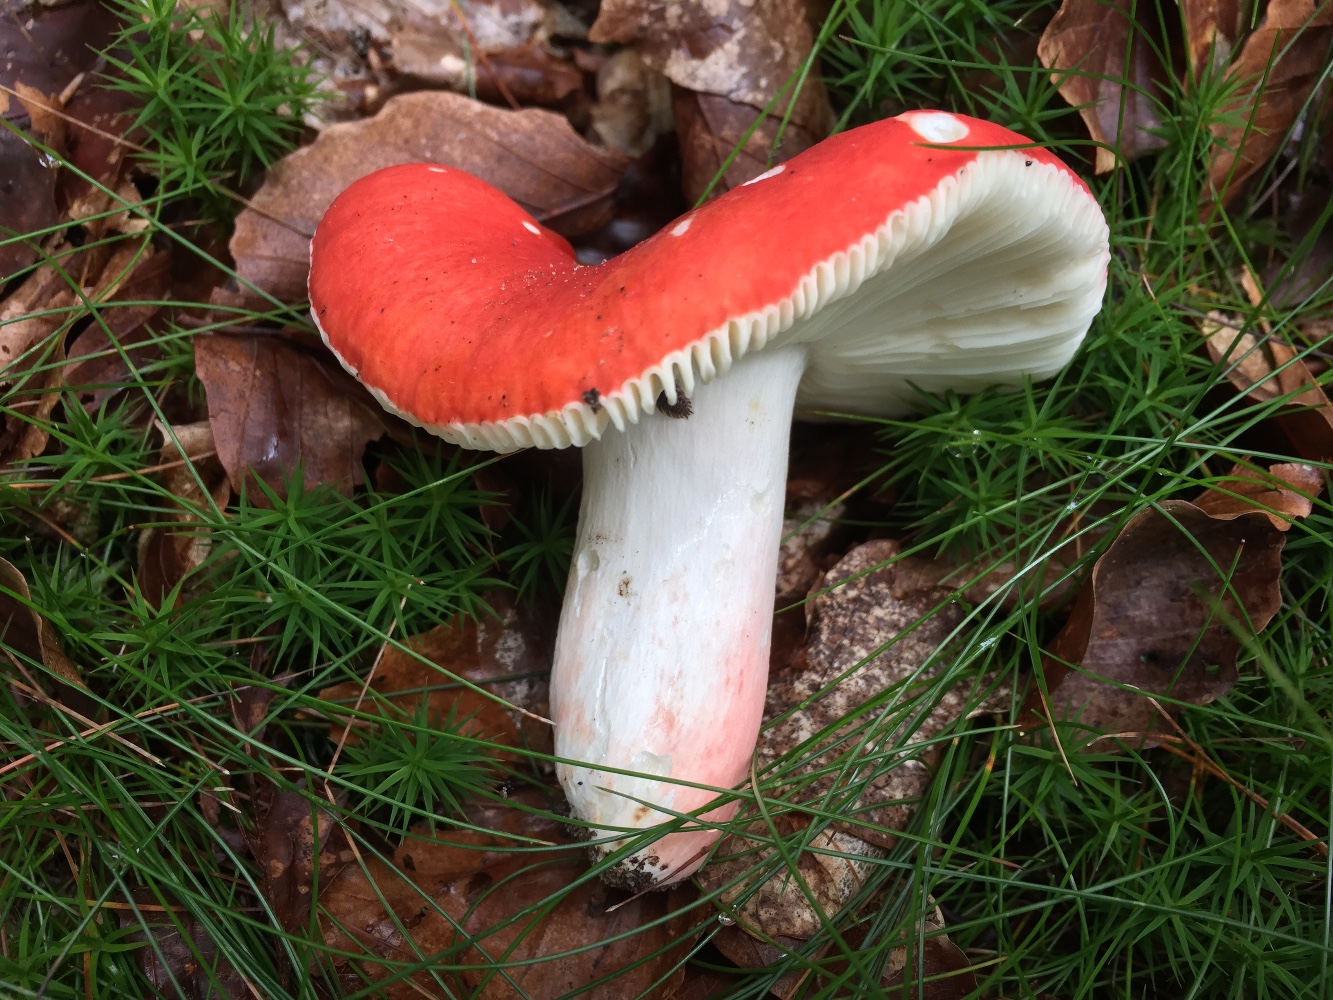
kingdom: Fungi
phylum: Basidiomycota
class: Agaricomycetes
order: Russulales
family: Russulaceae
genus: Russula
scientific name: Russula rosea
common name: fastkødet skørhat
